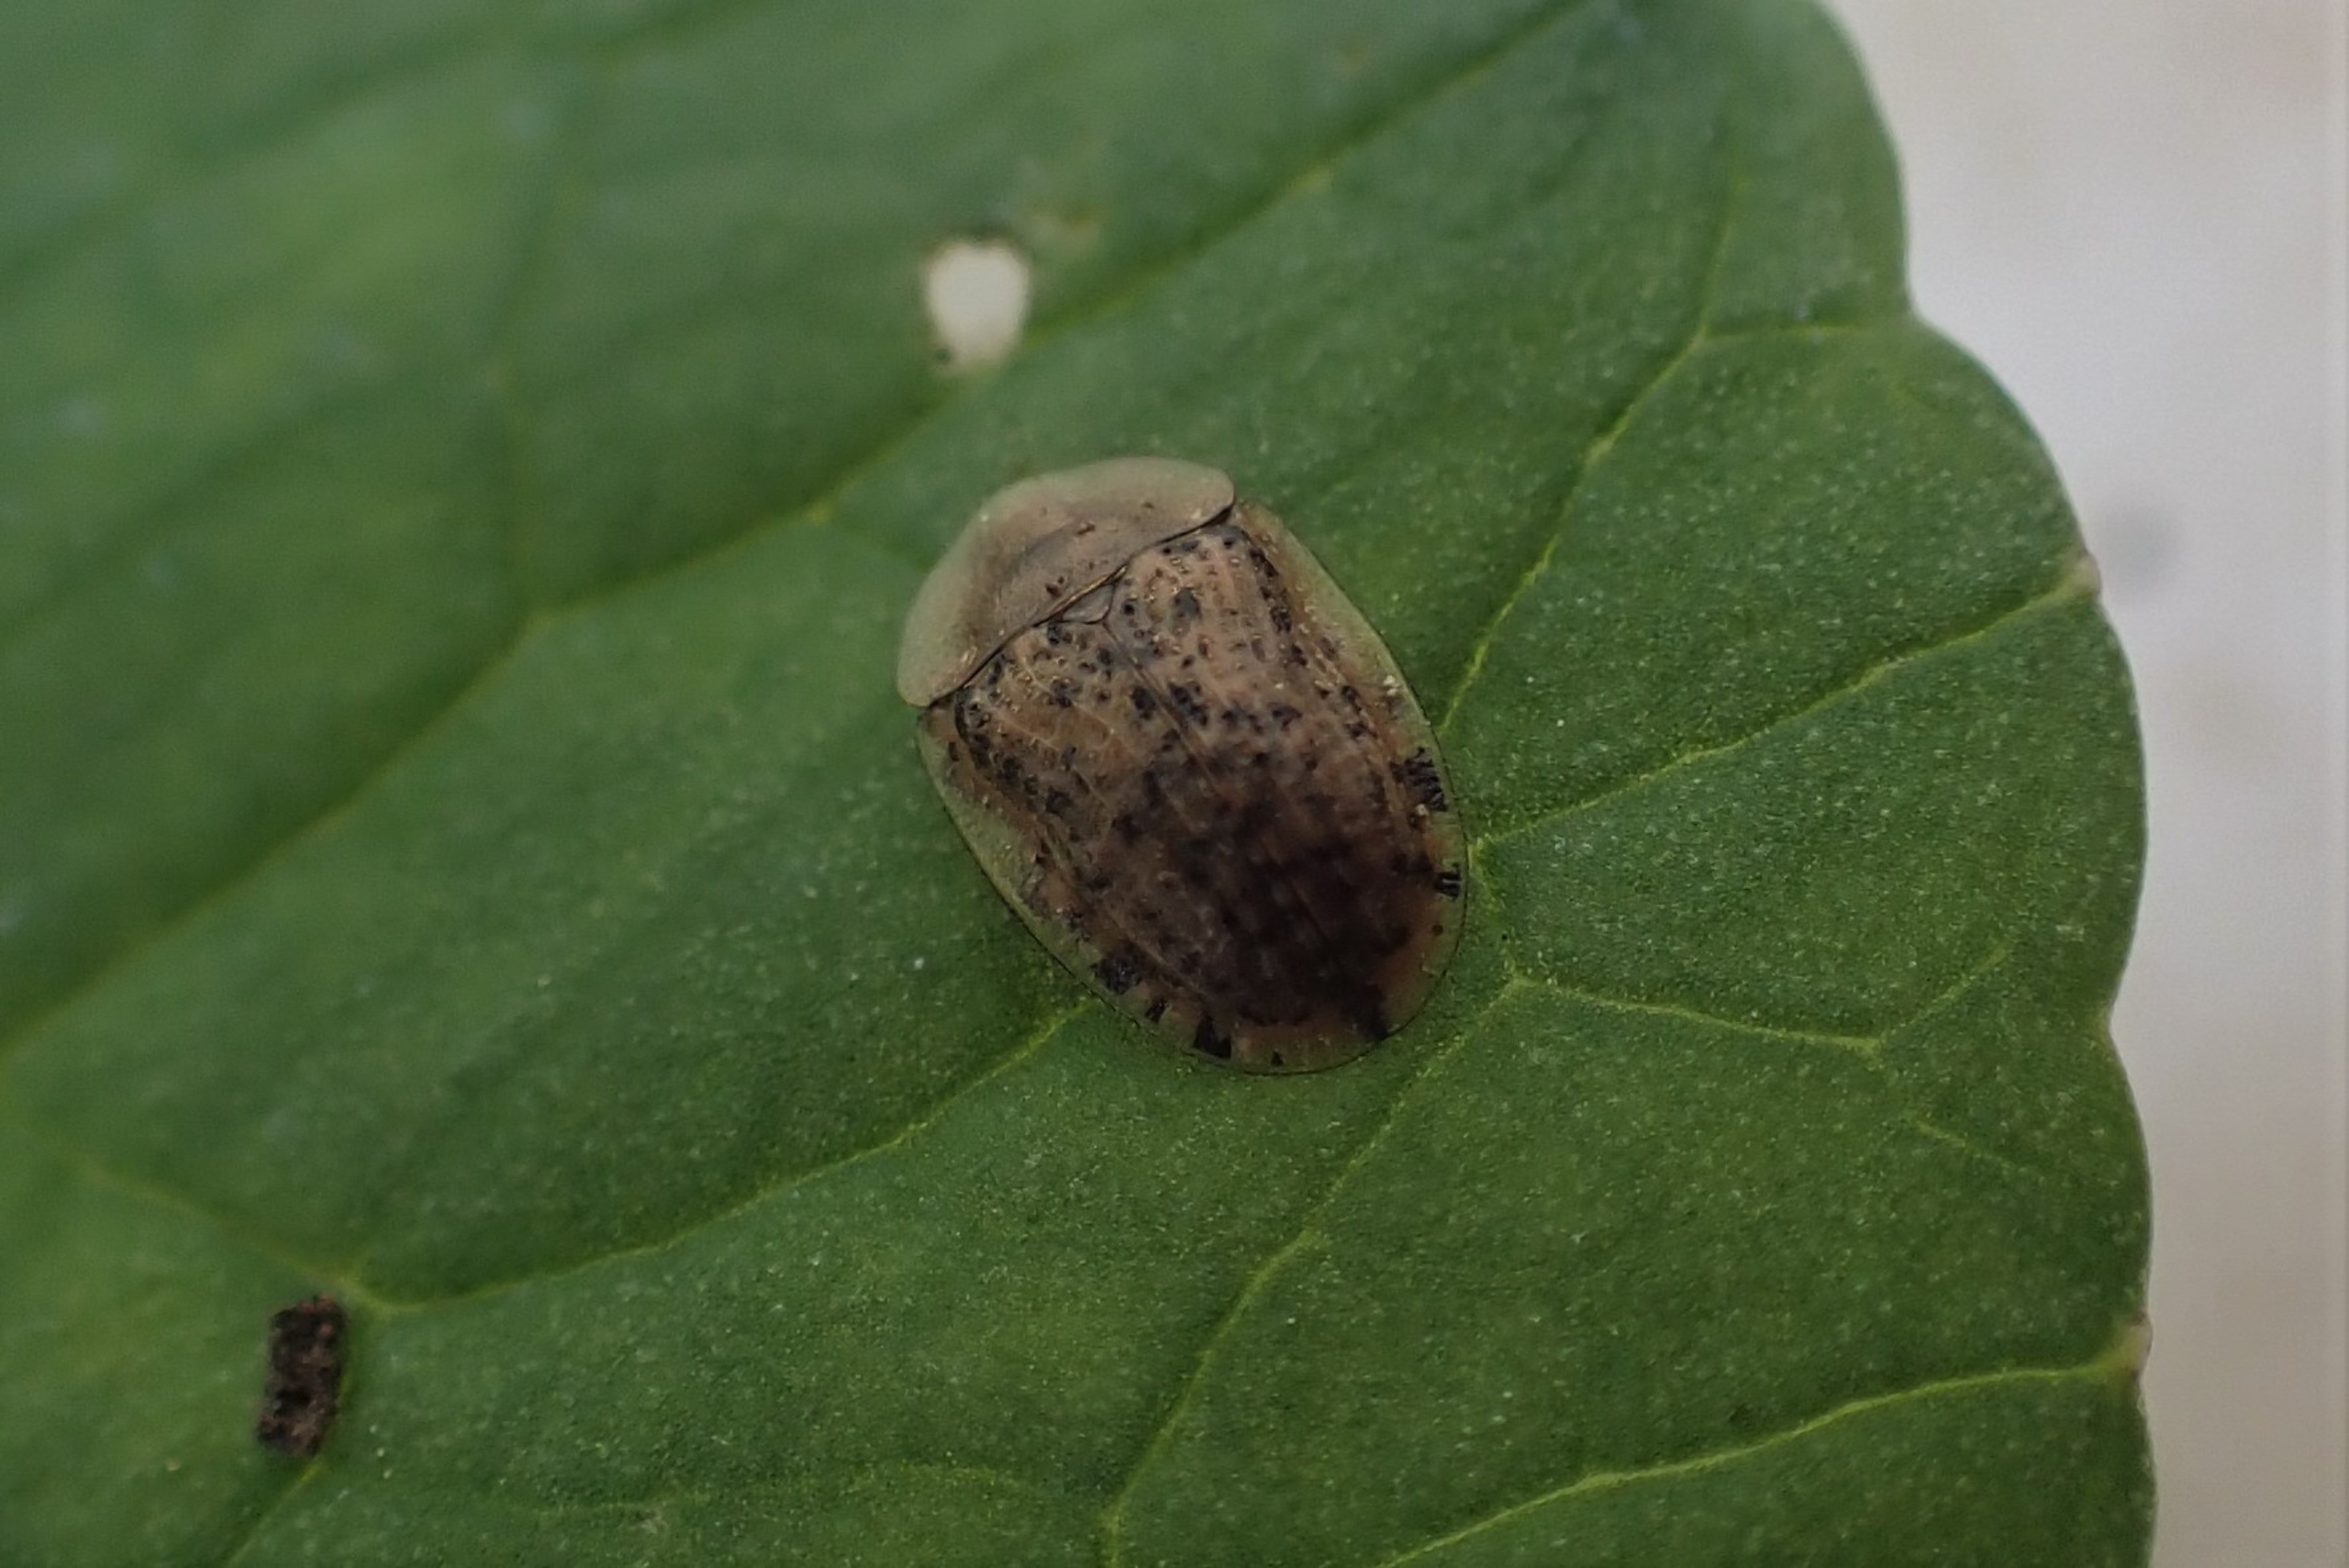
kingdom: Animalia
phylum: Arthropoda
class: Insecta
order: Coleoptera
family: Chrysomelidae
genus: Cassida
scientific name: Cassida nebulosa
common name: Plettet skjoldbille
